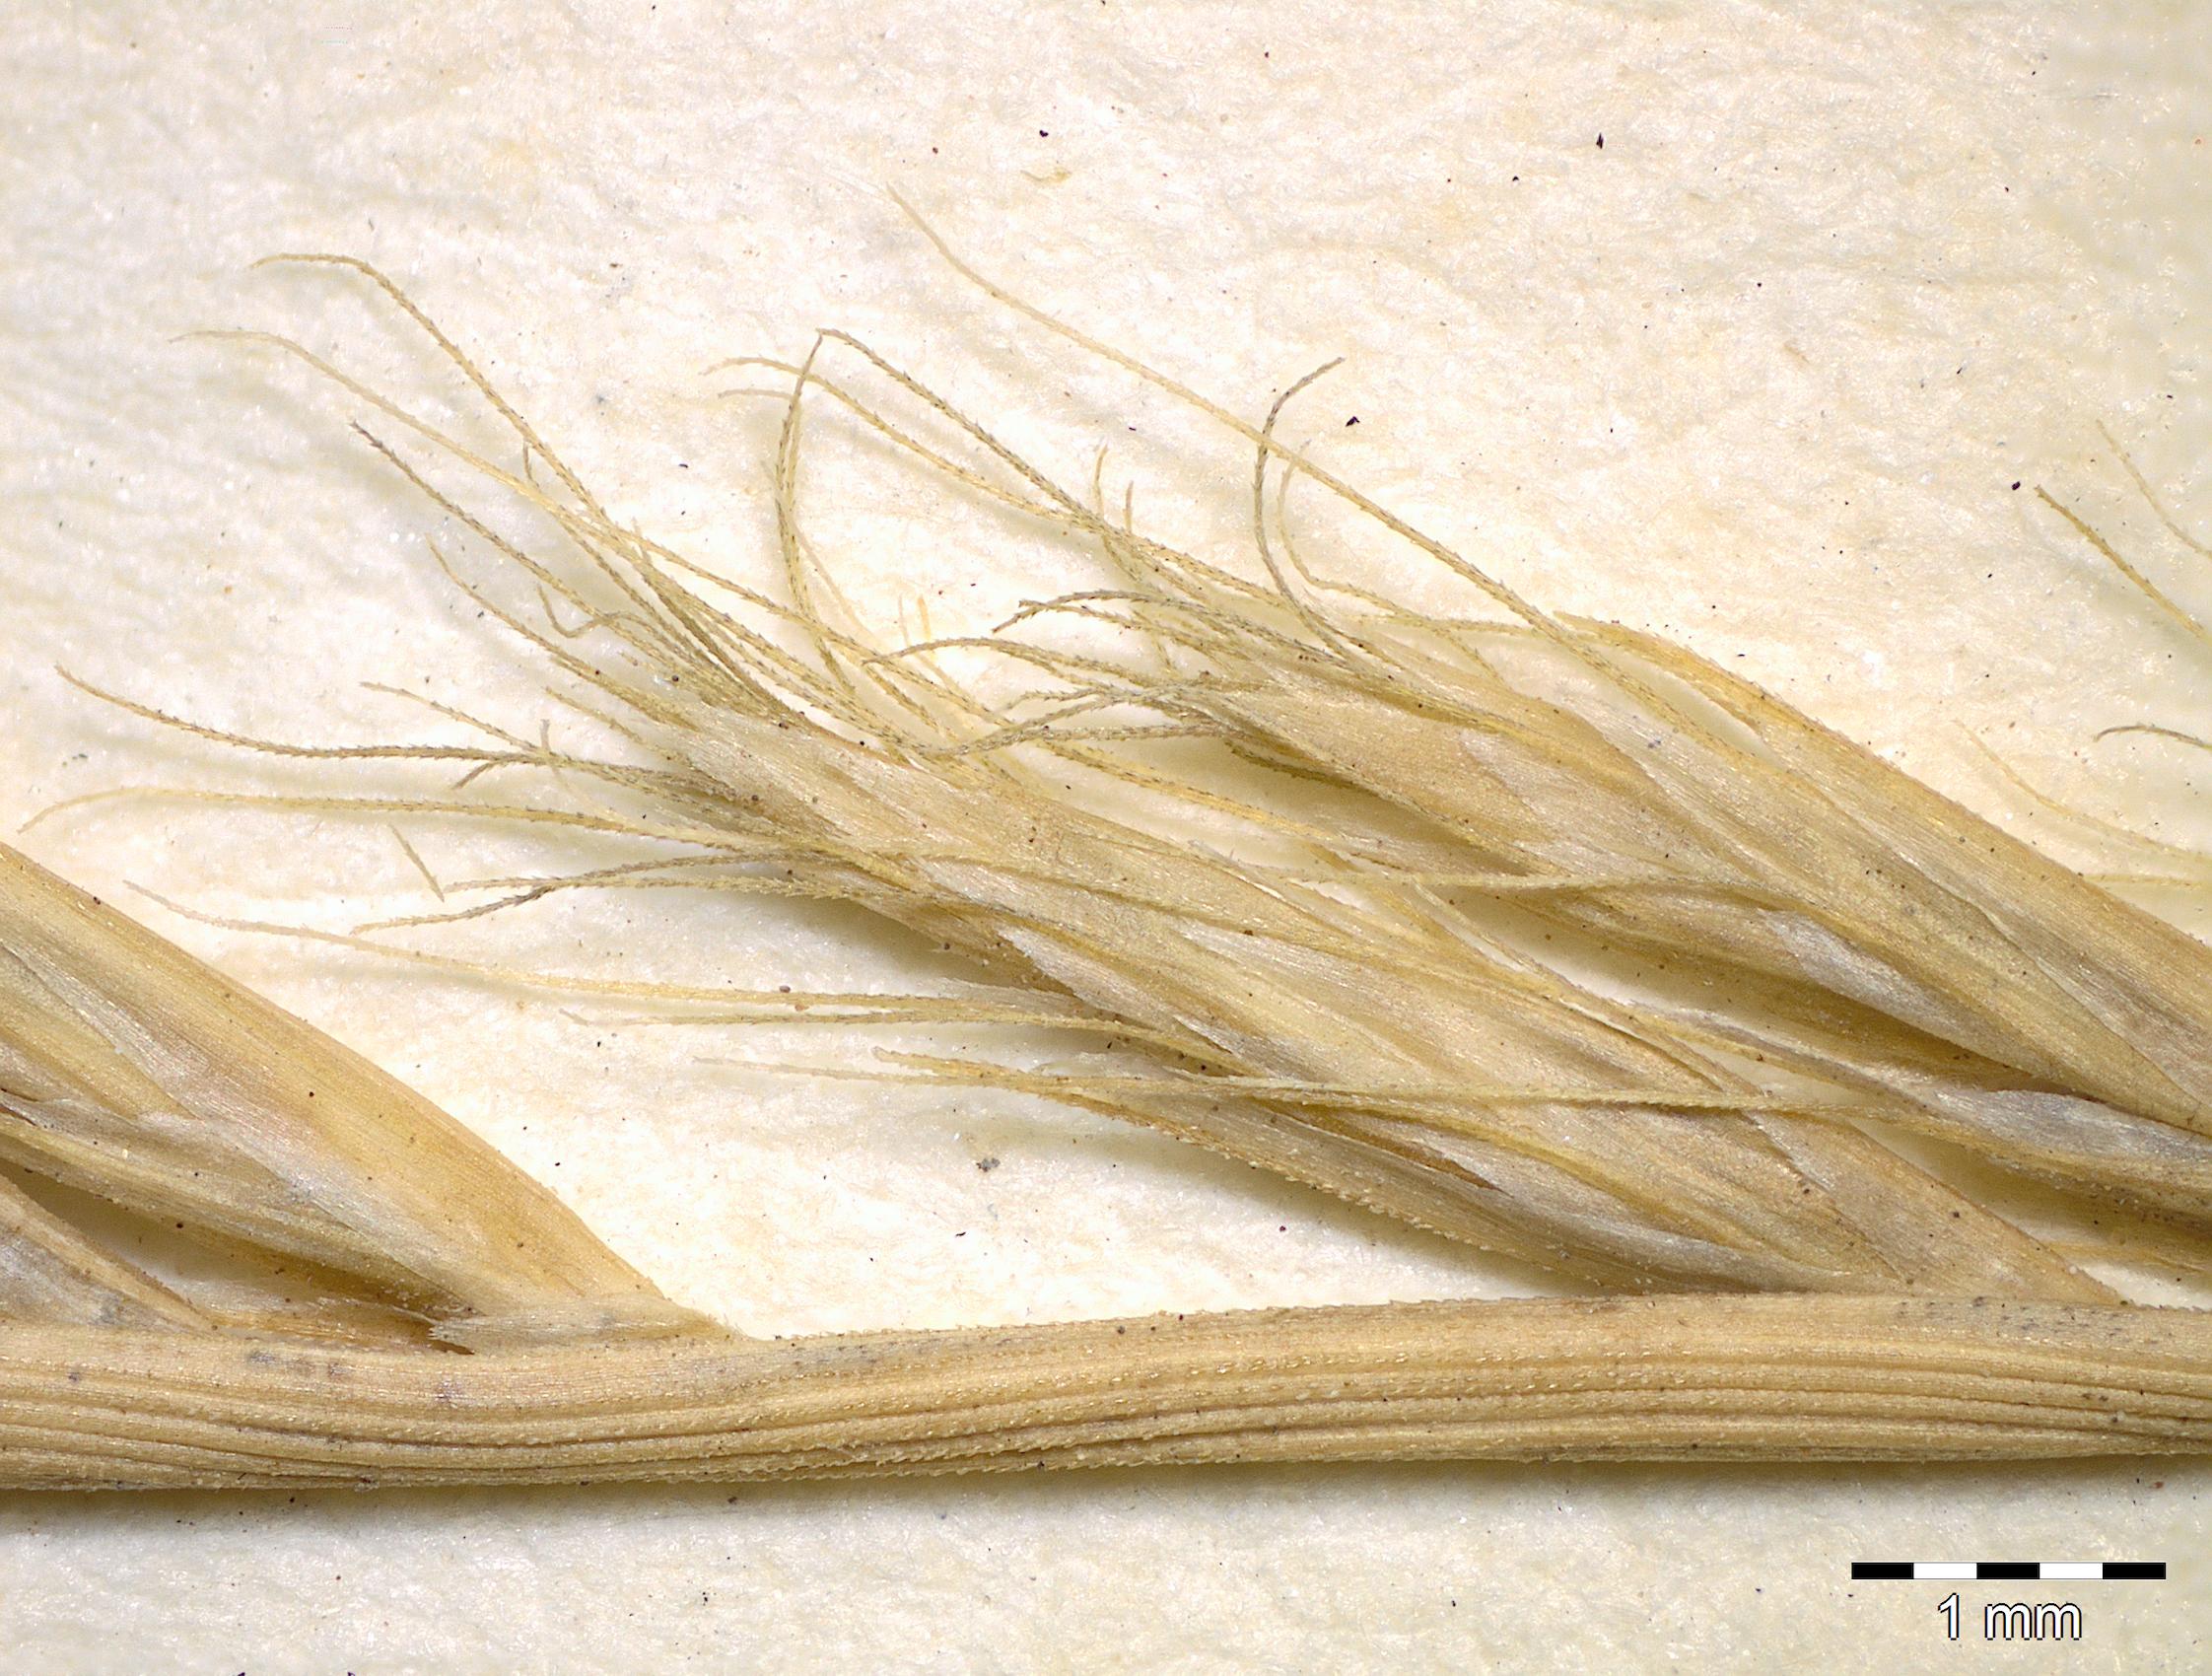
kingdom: Plantae
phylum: Tracheophyta
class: Liliopsida
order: Poales
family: Poaceae
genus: Tripogon
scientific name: Tripogon bromoides
